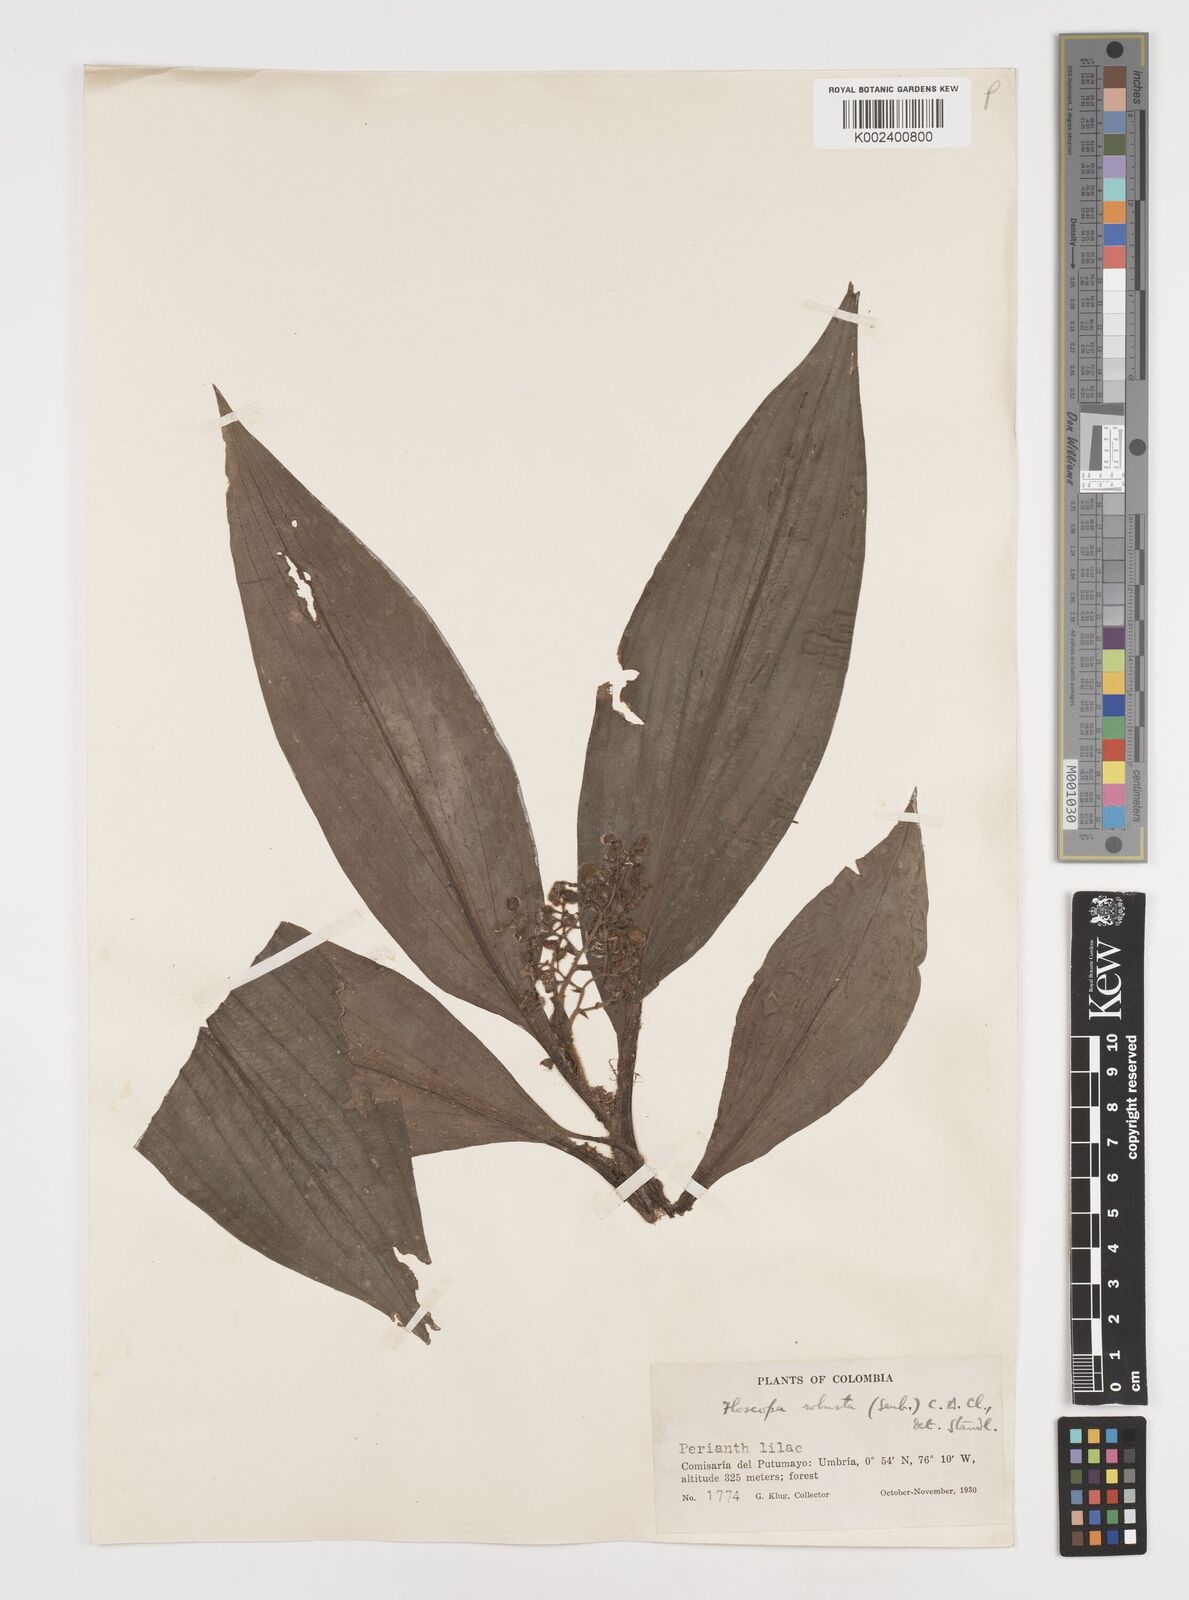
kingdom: Plantae
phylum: Tracheophyta
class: Liliopsida
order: Commelinales
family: Commelinaceae
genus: Floscopa
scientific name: Floscopa robusta
